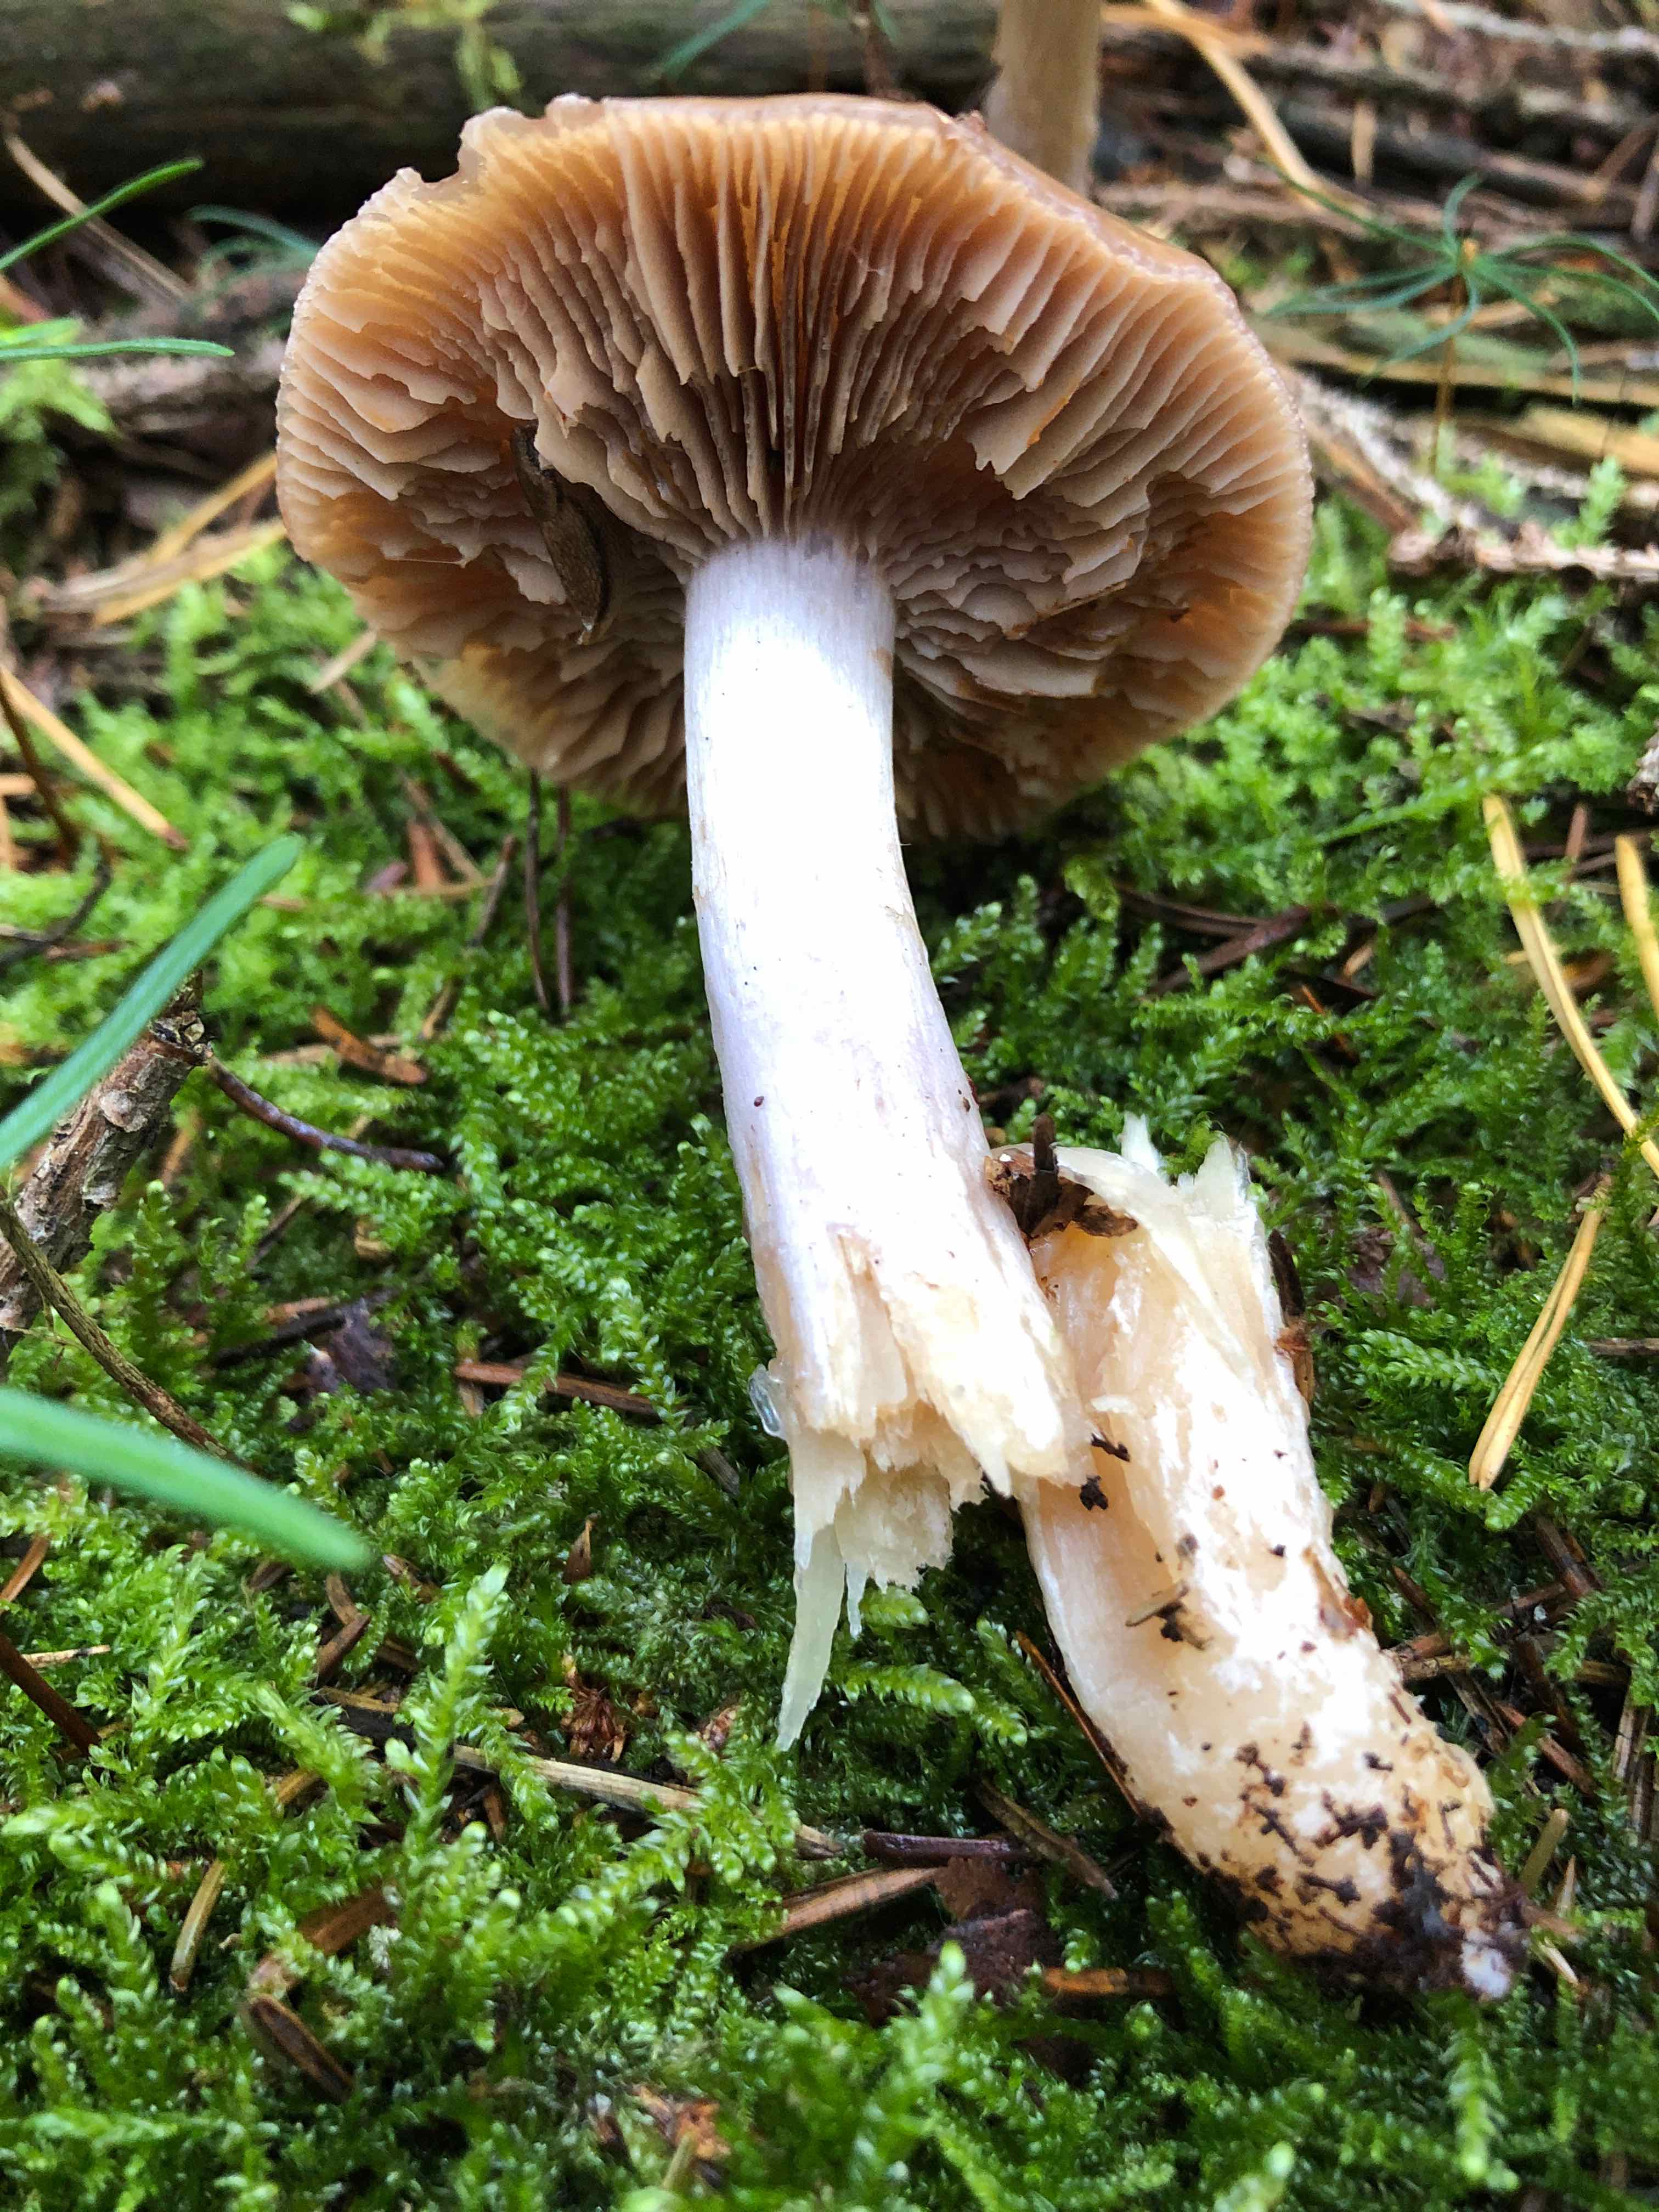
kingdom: Fungi
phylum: Basidiomycota
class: Agaricomycetes
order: Agaricales
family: Cortinariaceae
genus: Cortinarius
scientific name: Cortinarius
